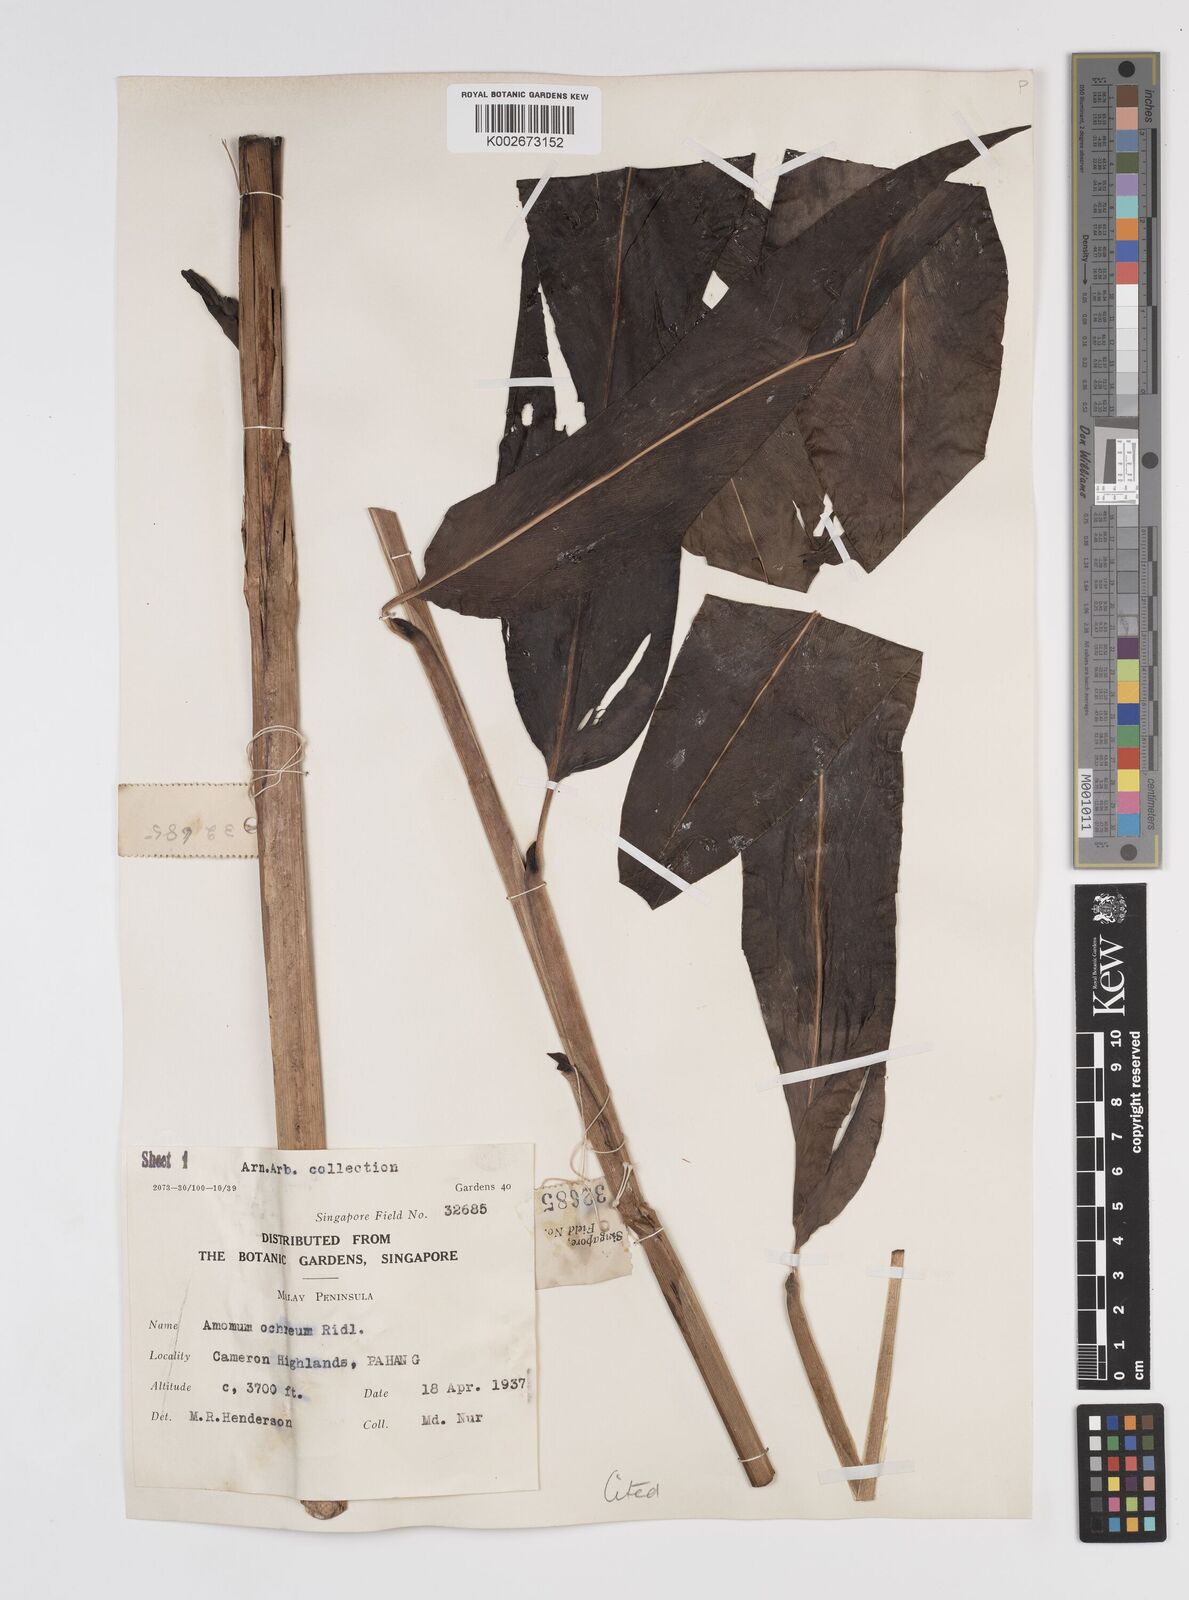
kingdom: Plantae
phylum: Tracheophyta
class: Liliopsida
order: Zingiberales
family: Zingiberaceae
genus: Meistera
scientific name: Meistera ochrea
